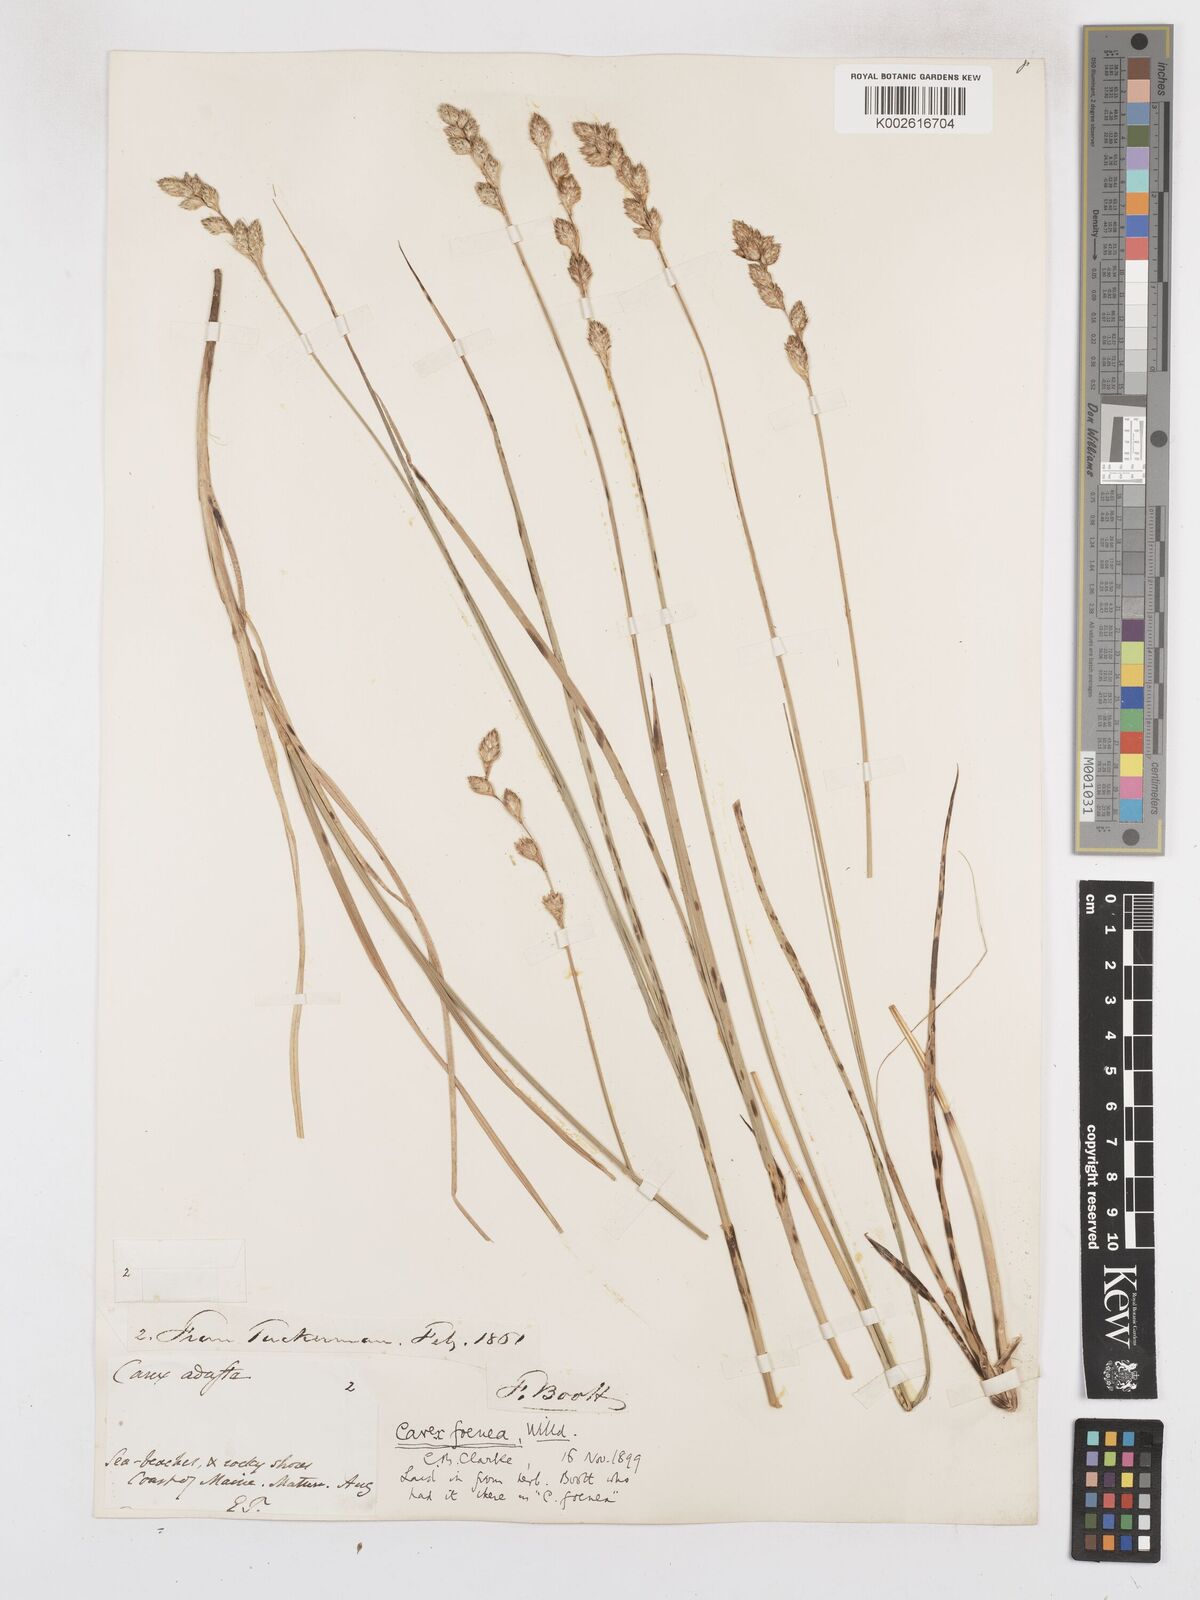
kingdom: Plantae
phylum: Tracheophyta
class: Liliopsida
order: Poales
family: Cyperaceae
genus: Carex
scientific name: Carex argyrantha
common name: Silvery-flowered sedge
